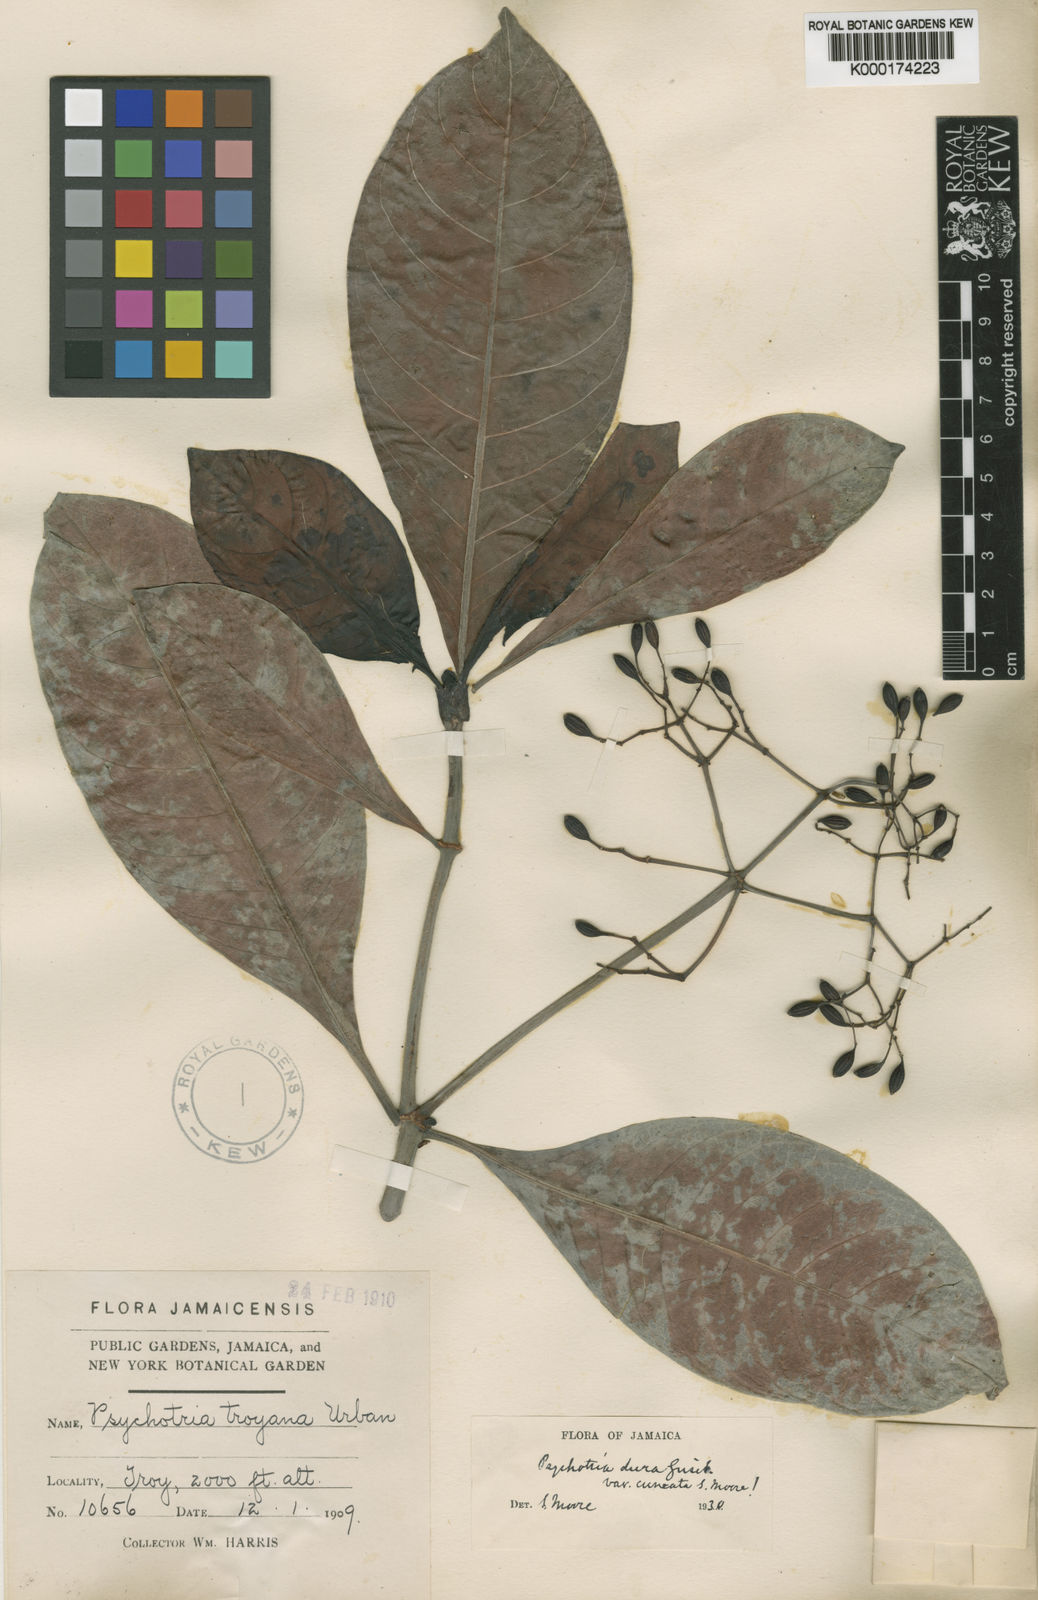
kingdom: Plantae
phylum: Tracheophyta
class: Magnoliopsida
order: Gentianales
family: Rubiaceae
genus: Psychotria
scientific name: Psychotria dura
